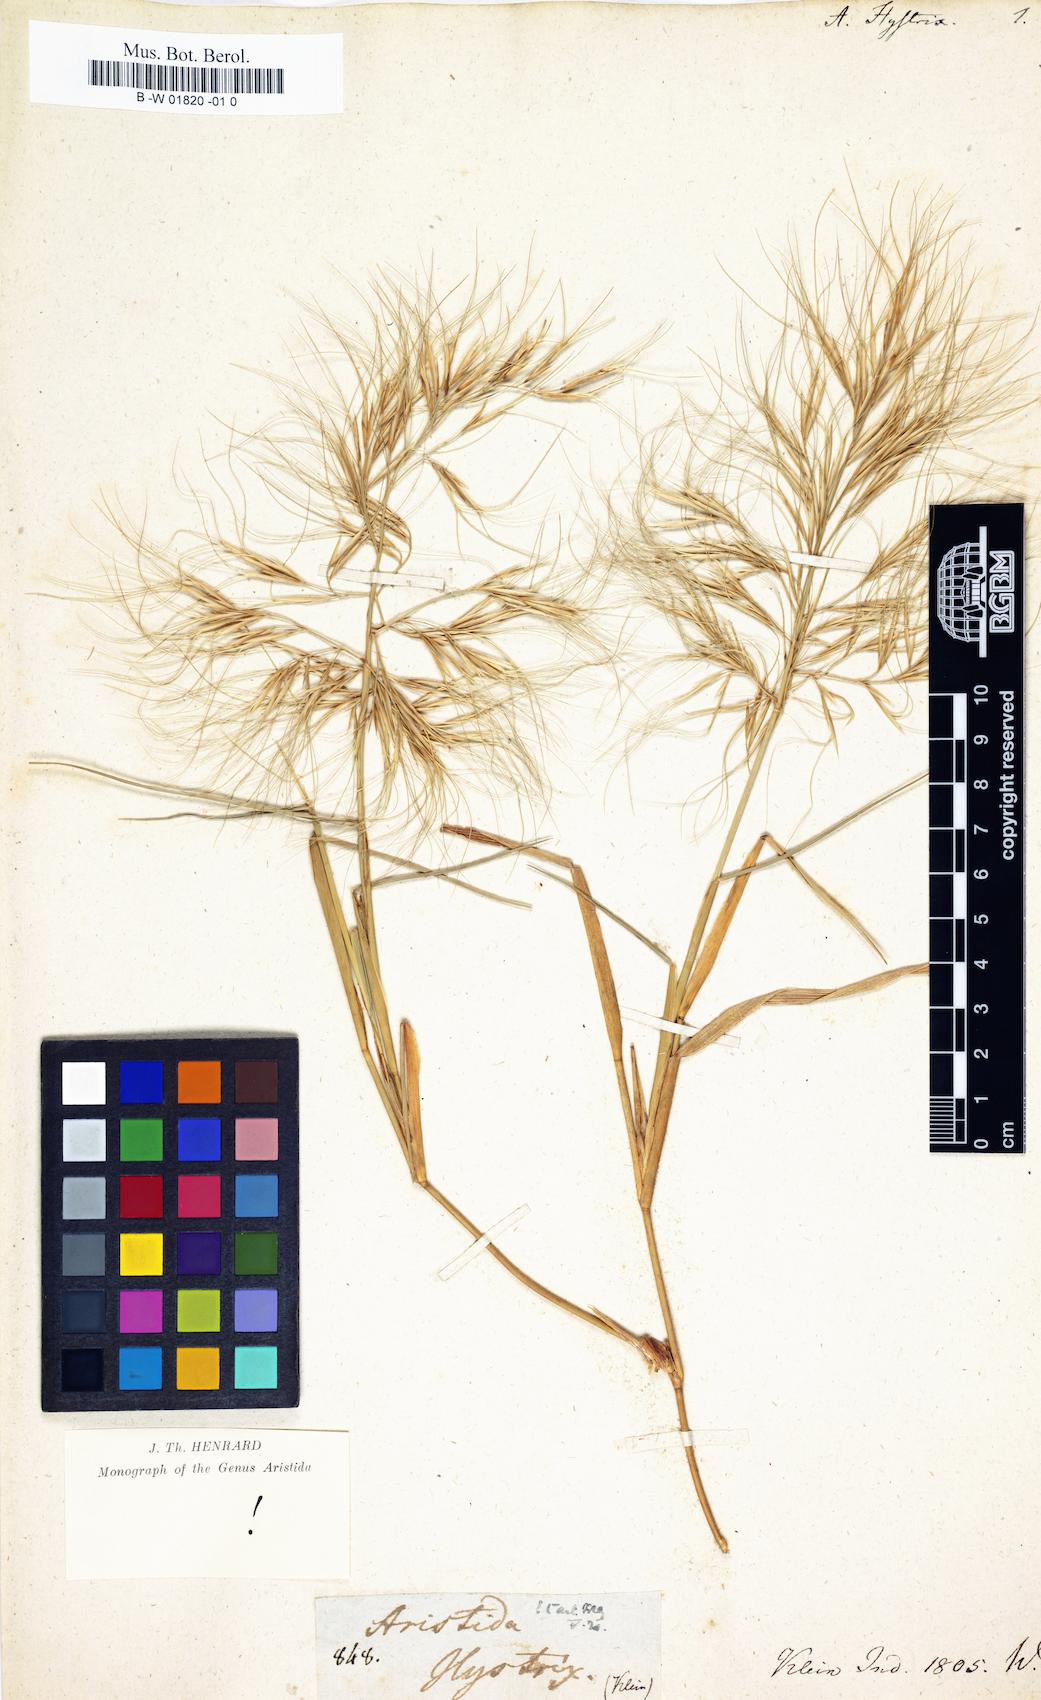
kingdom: Plantae
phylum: Tracheophyta
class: Liliopsida
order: Poales
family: Poaceae
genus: Aristida
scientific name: Aristida hystrix
